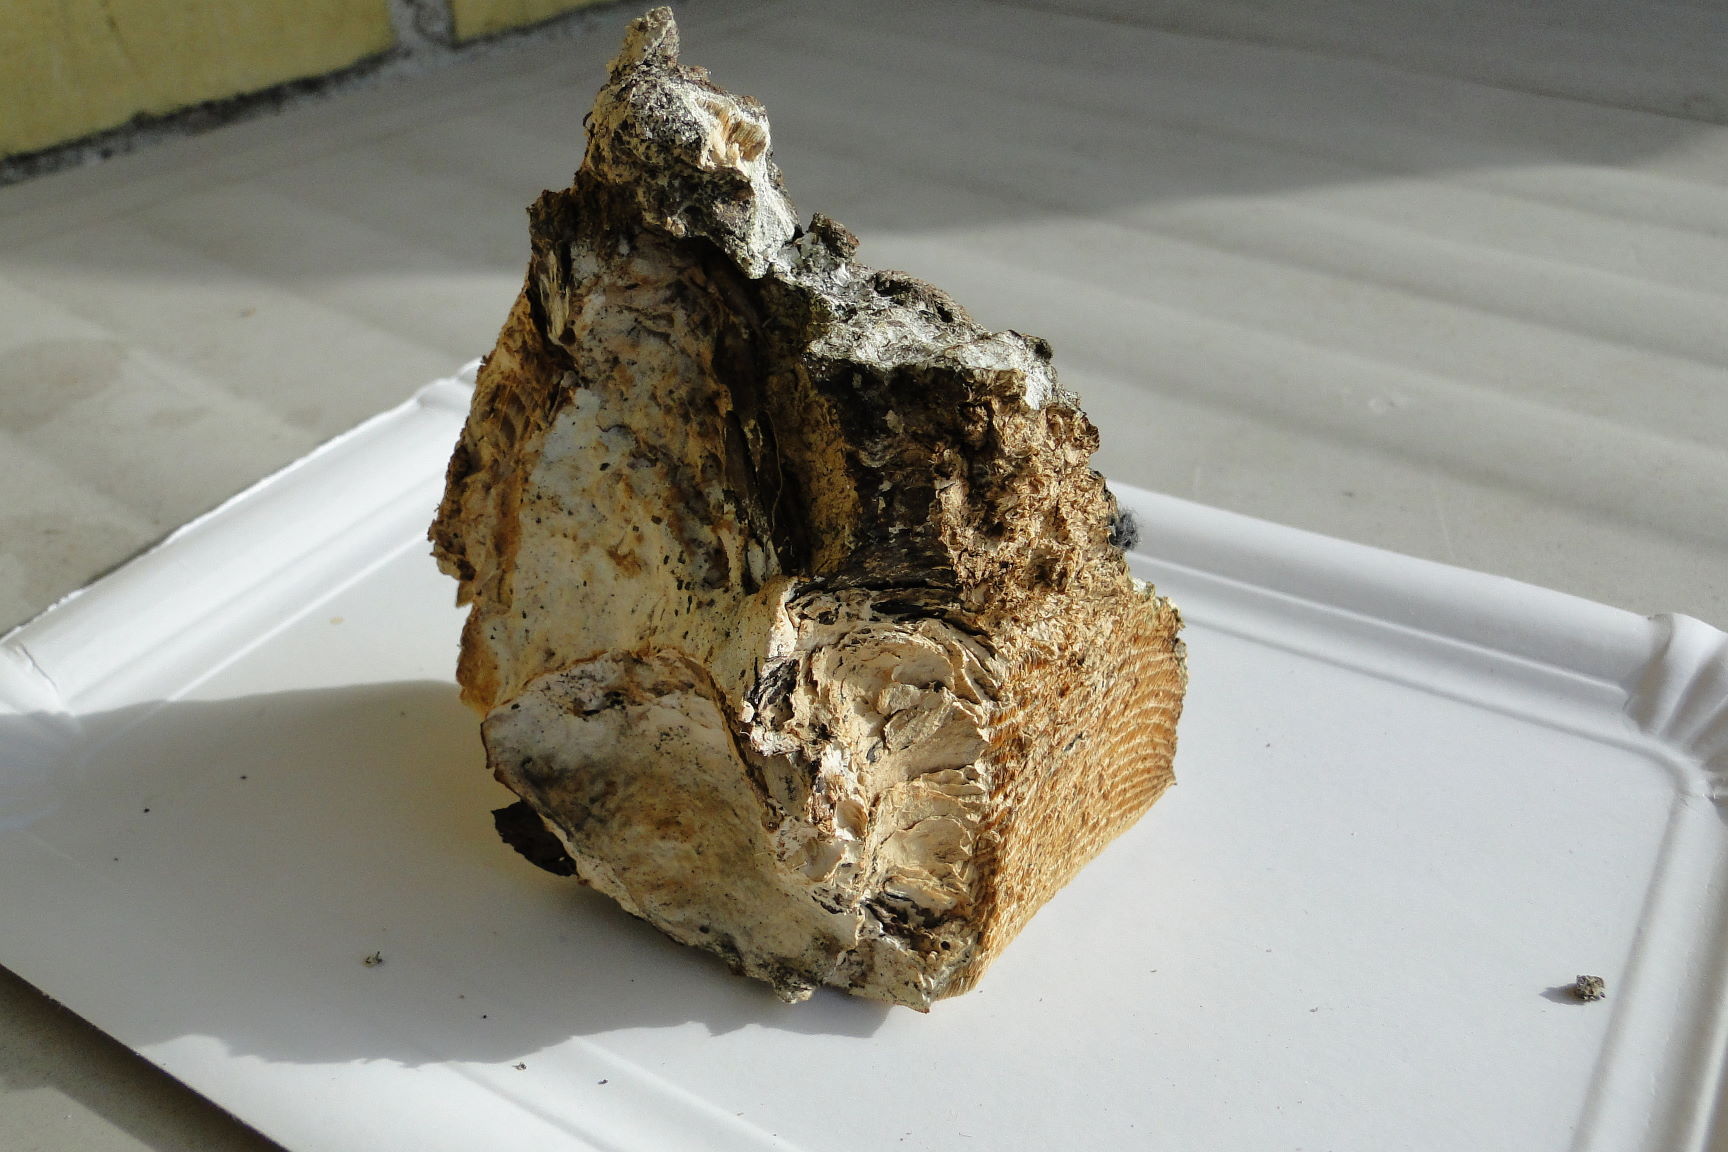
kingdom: Fungi
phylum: Basidiomycota
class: Agaricomycetes
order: Hymenochaetales
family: Oxyporaceae
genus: Oxyporus
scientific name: Oxyporus populinus
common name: sammenvokset trylleporesvamp
